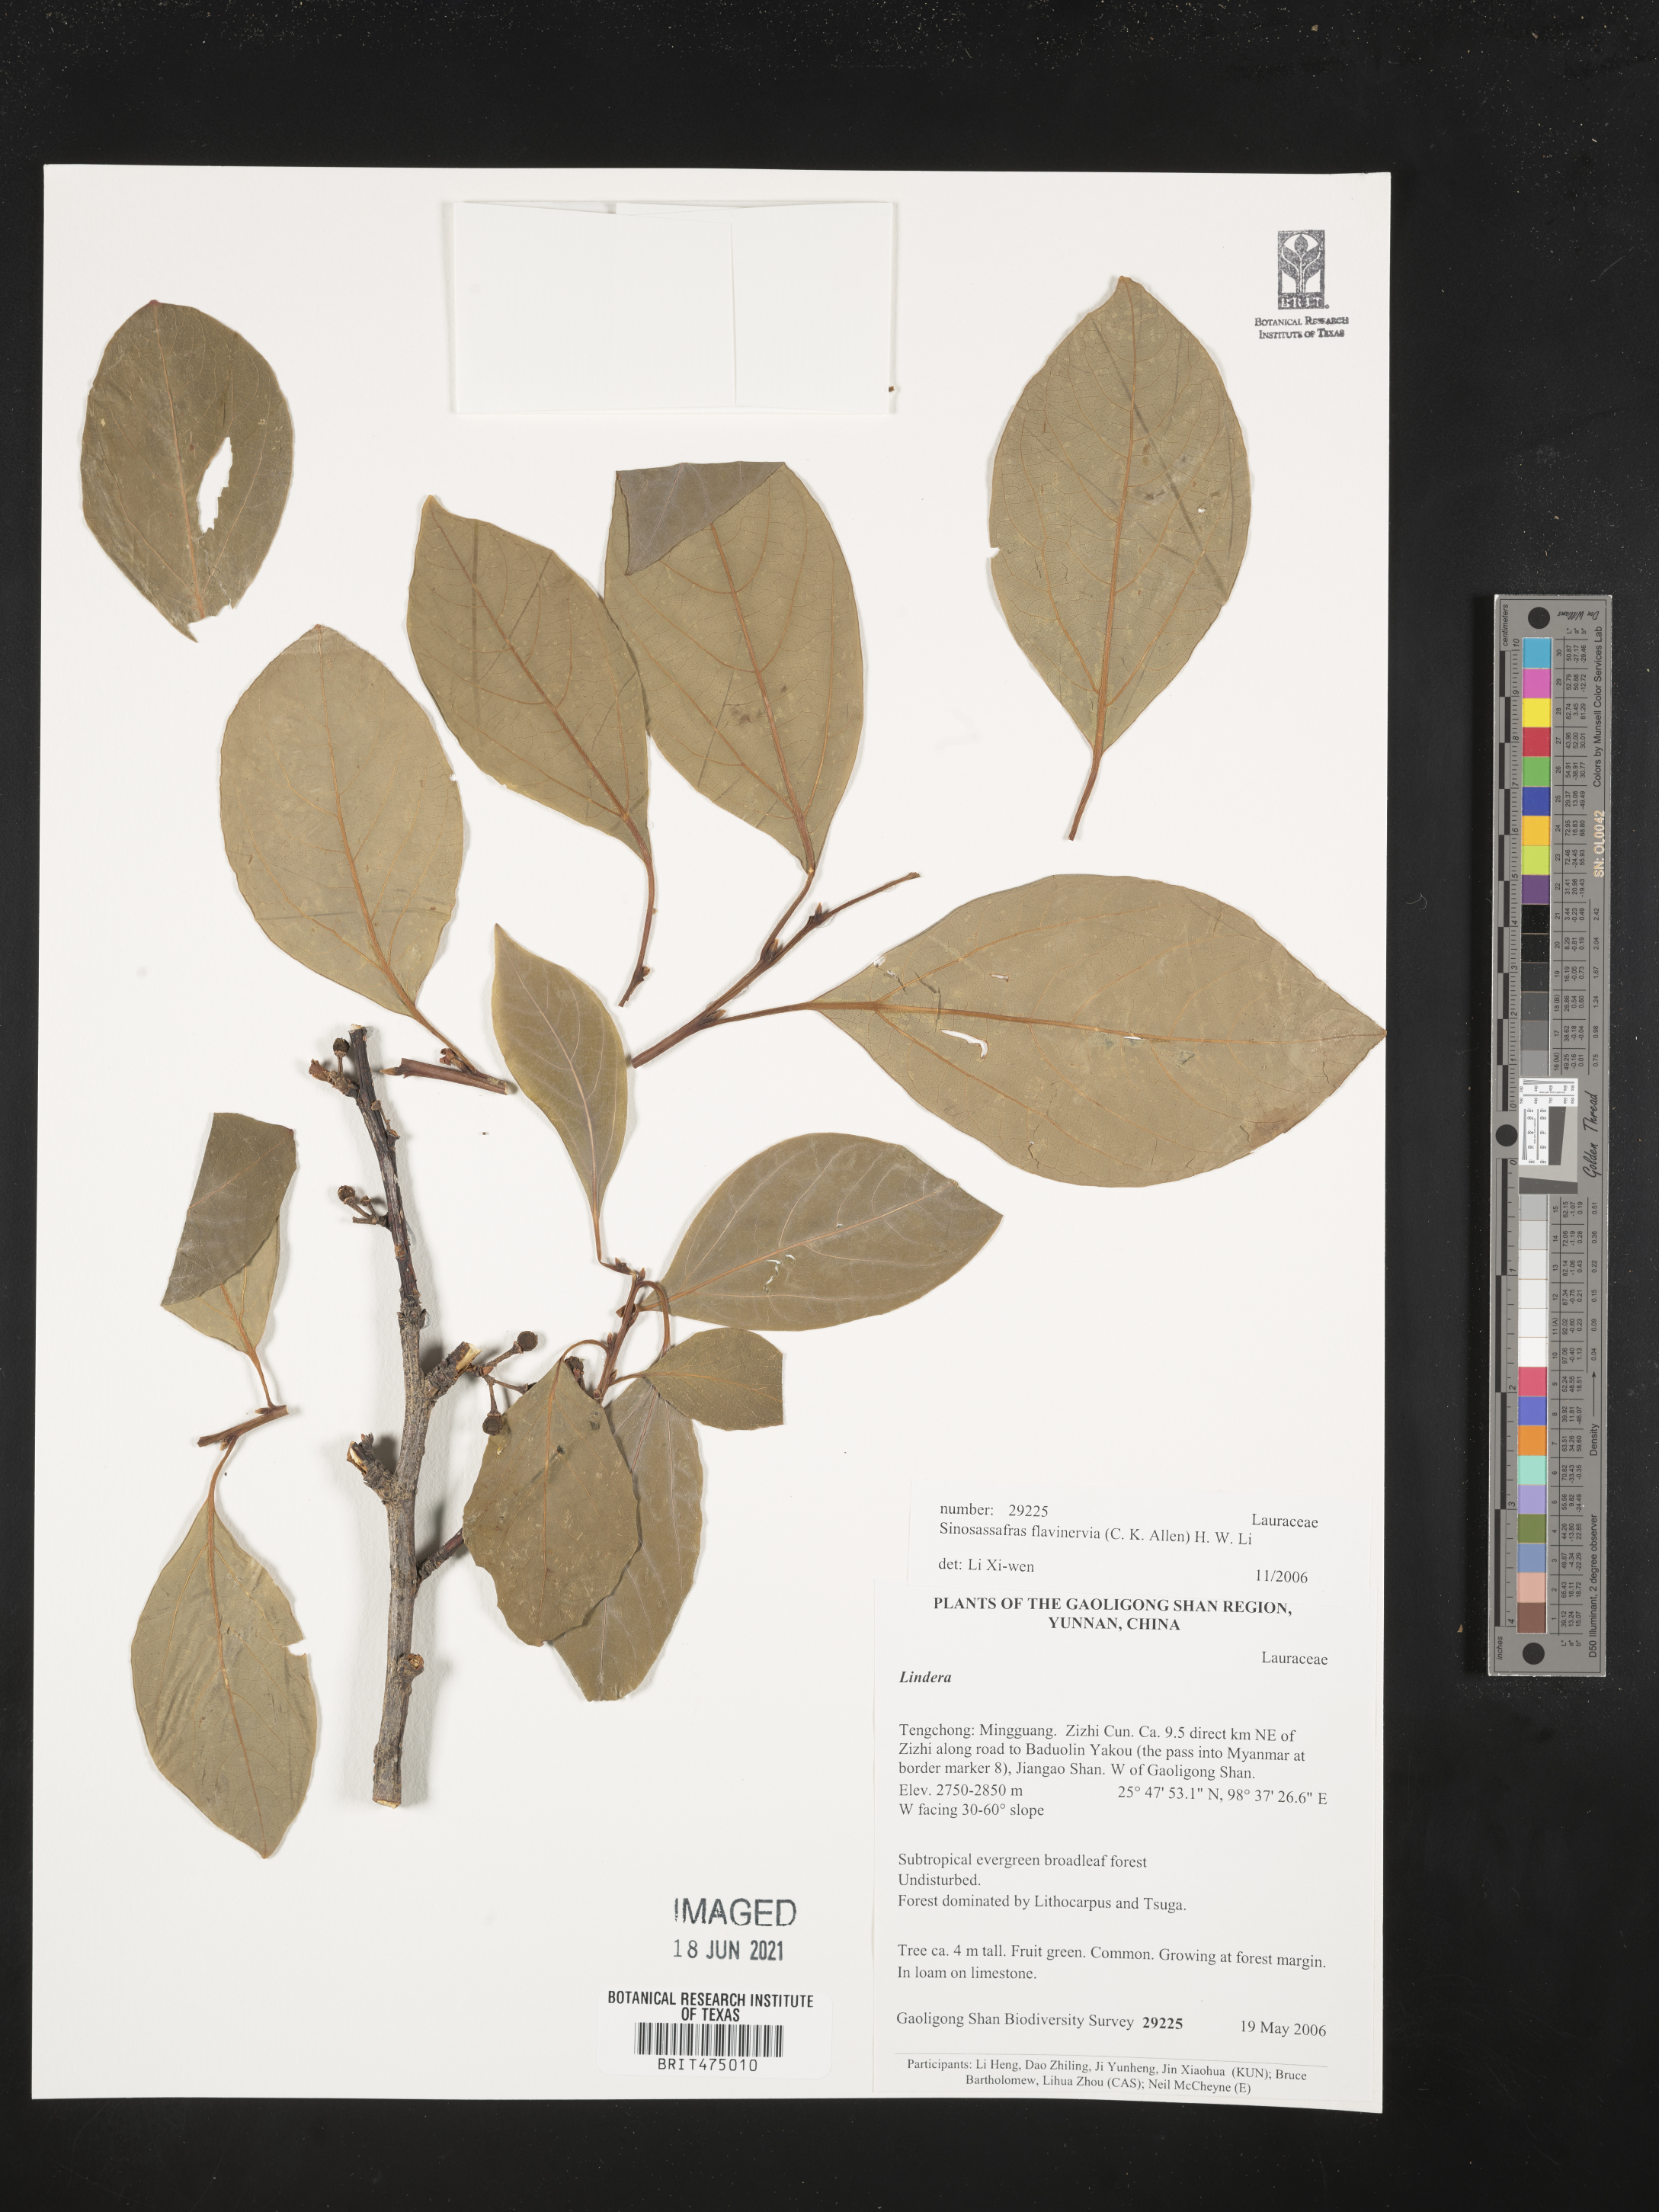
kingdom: Plantae
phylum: Tracheophyta
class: Magnoliopsida
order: Laurales
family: Lauraceae
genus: Lindera
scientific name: Lindera flavinervia
